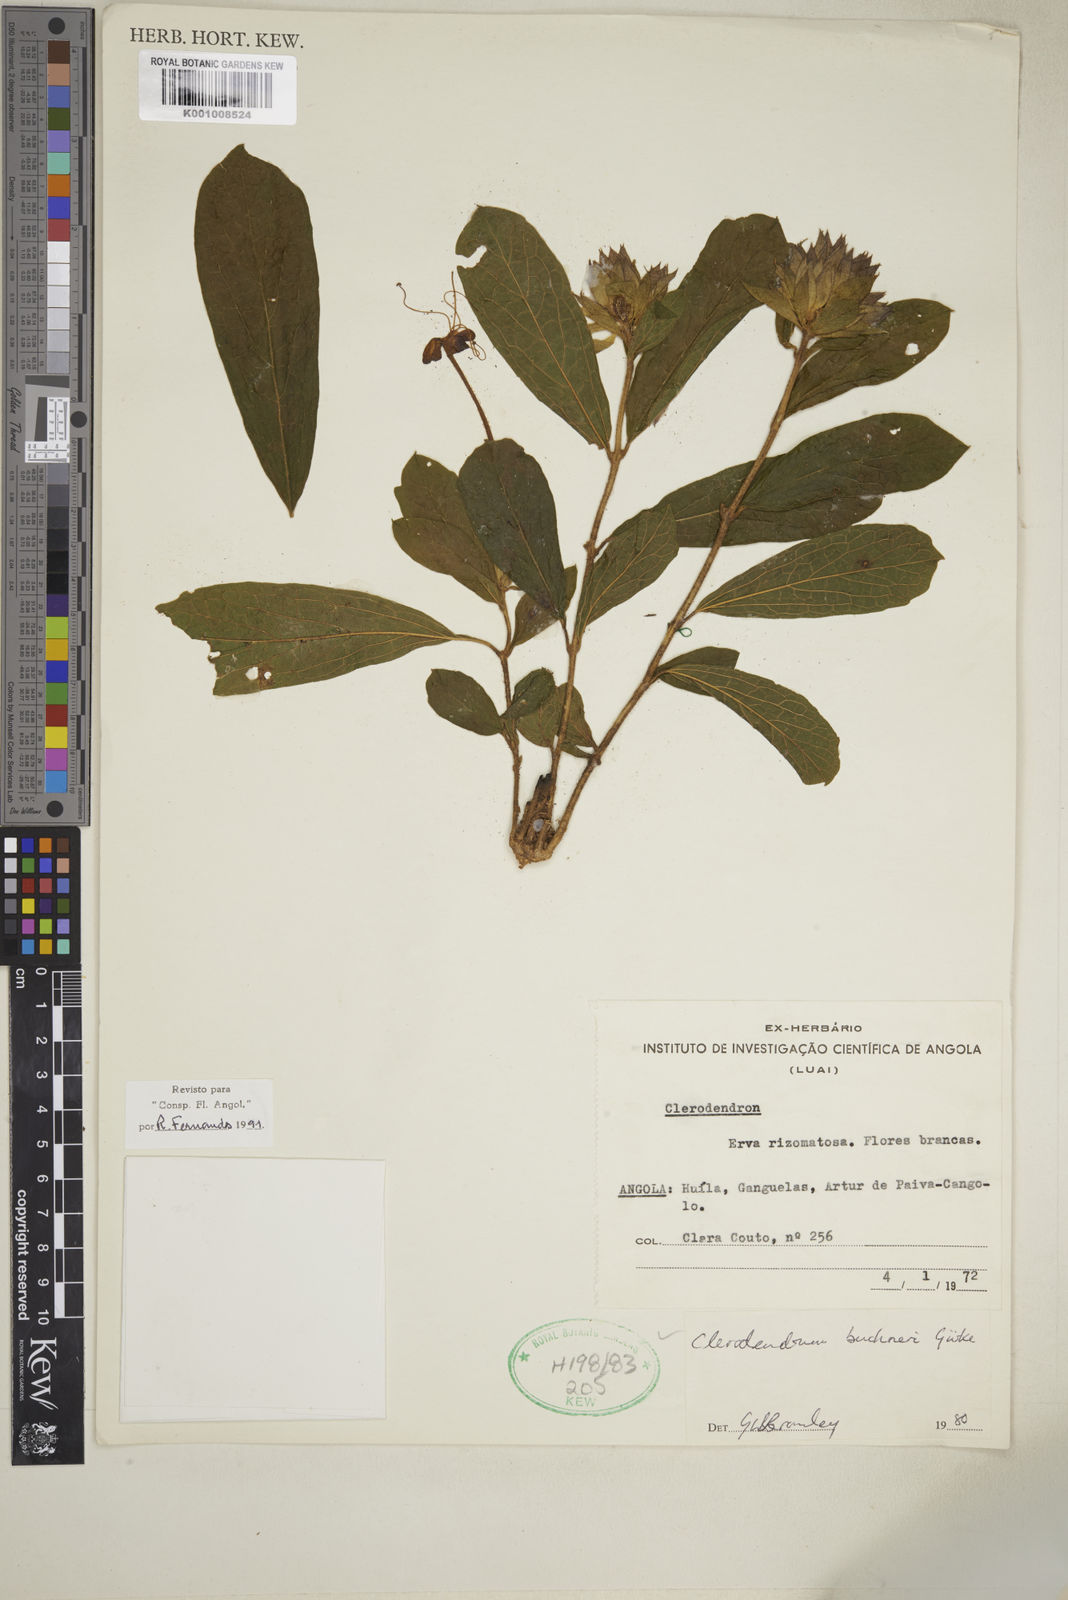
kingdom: Plantae
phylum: Tracheophyta
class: Magnoliopsida
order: Lamiales
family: Lamiaceae
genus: Clerodendrum
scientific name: Clerodendrum
